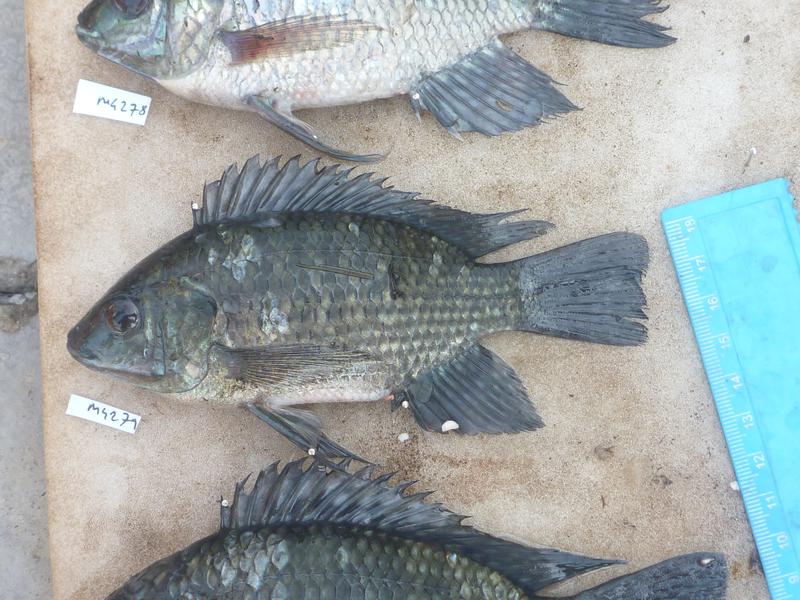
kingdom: Animalia
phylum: Chordata
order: Perciformes
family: Cichlidae
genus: Oreochromis
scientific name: Oreochromis leucostictus
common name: Blue spotted tilapia
